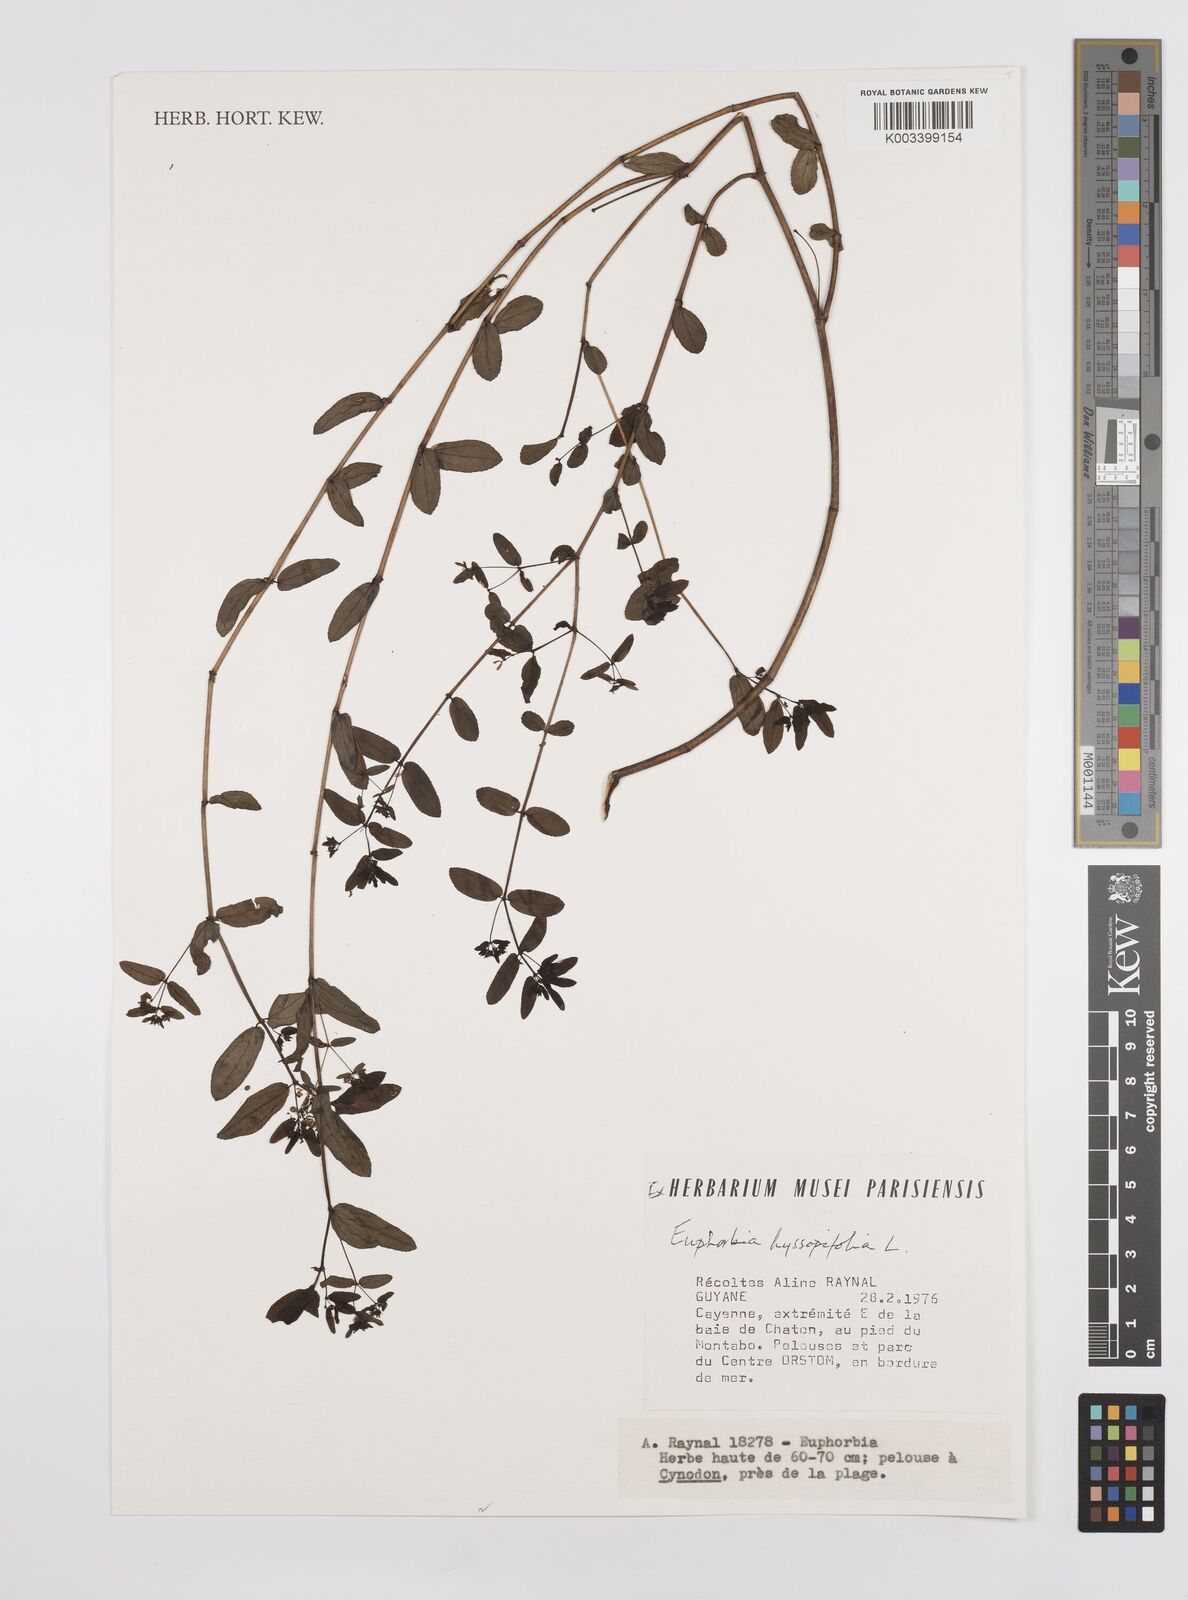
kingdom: Plantae
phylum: Tracheophyta
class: Magnoliopsida
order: Malpighiales
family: Euphorbiaceae
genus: Euphorbia
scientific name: Euphorbia hyssopifolia
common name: Hyssopleaf sandmat
